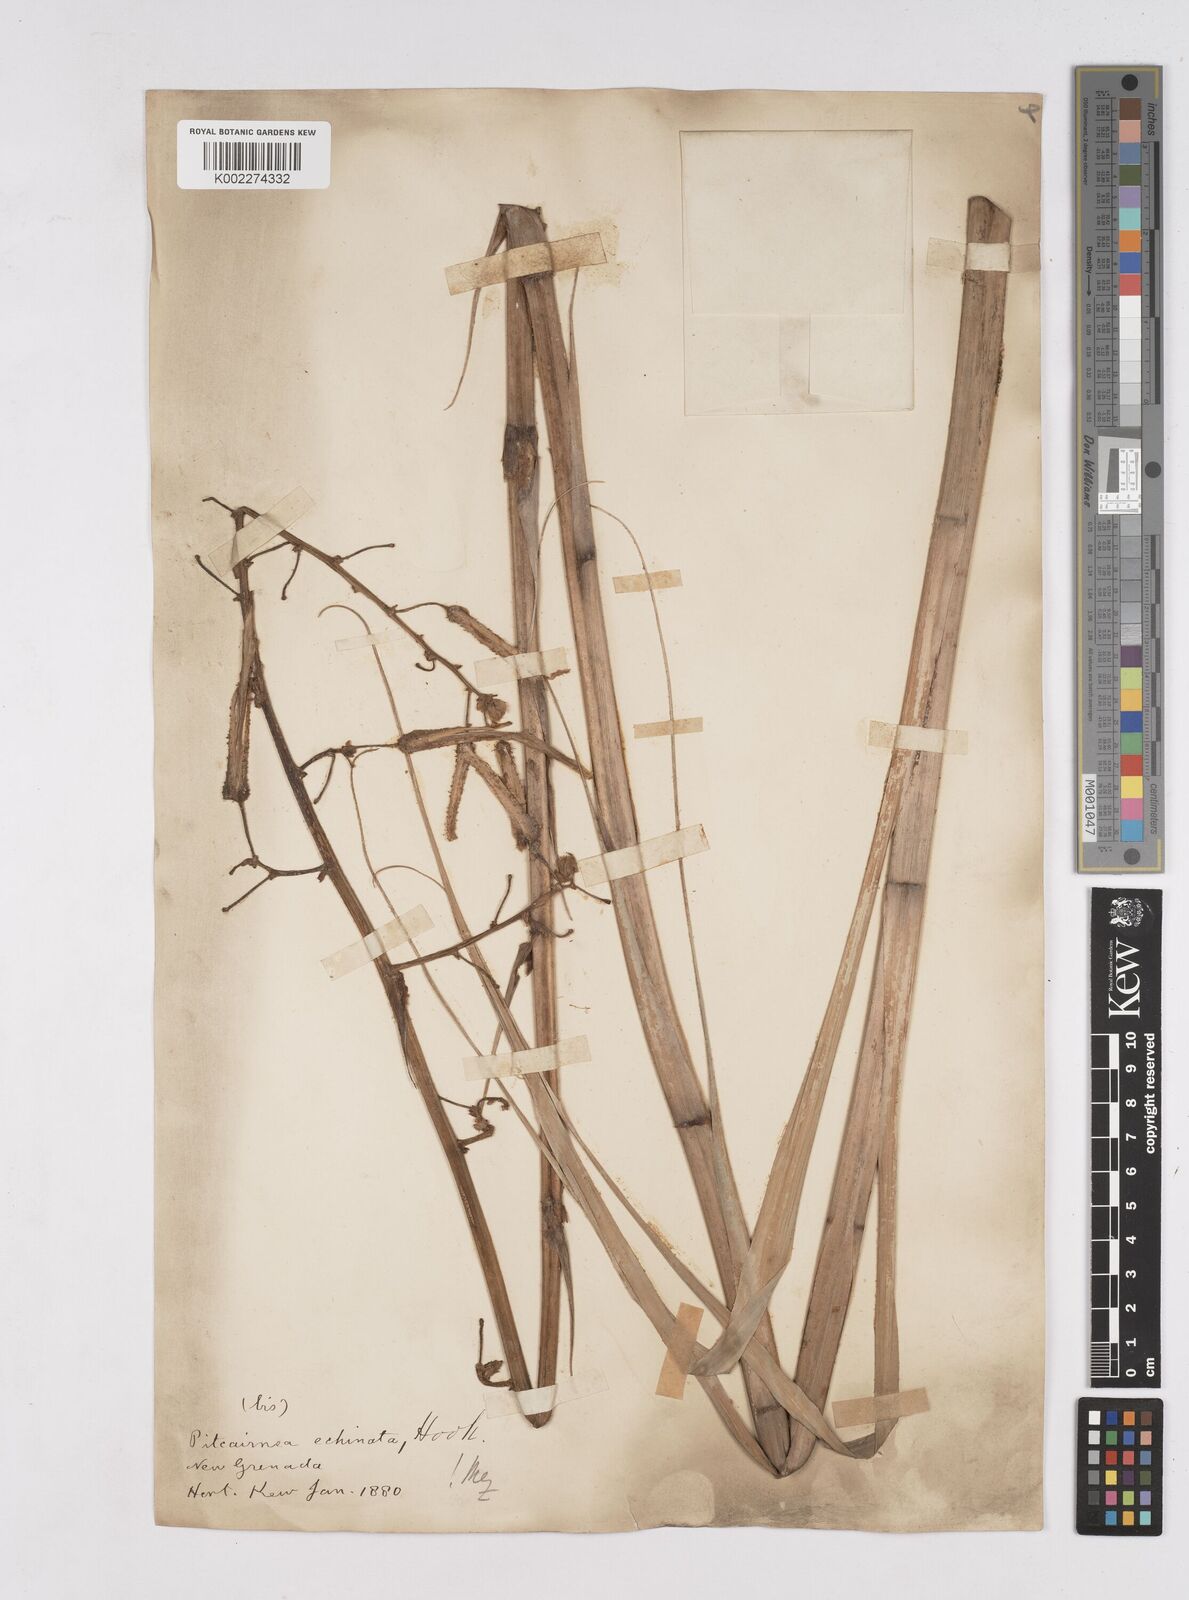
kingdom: Plantae
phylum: Tracheophyta
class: Liliopsida
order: Poales
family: Bromeliaceae
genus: Pitcairnia
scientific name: Pitcairnia echinata
